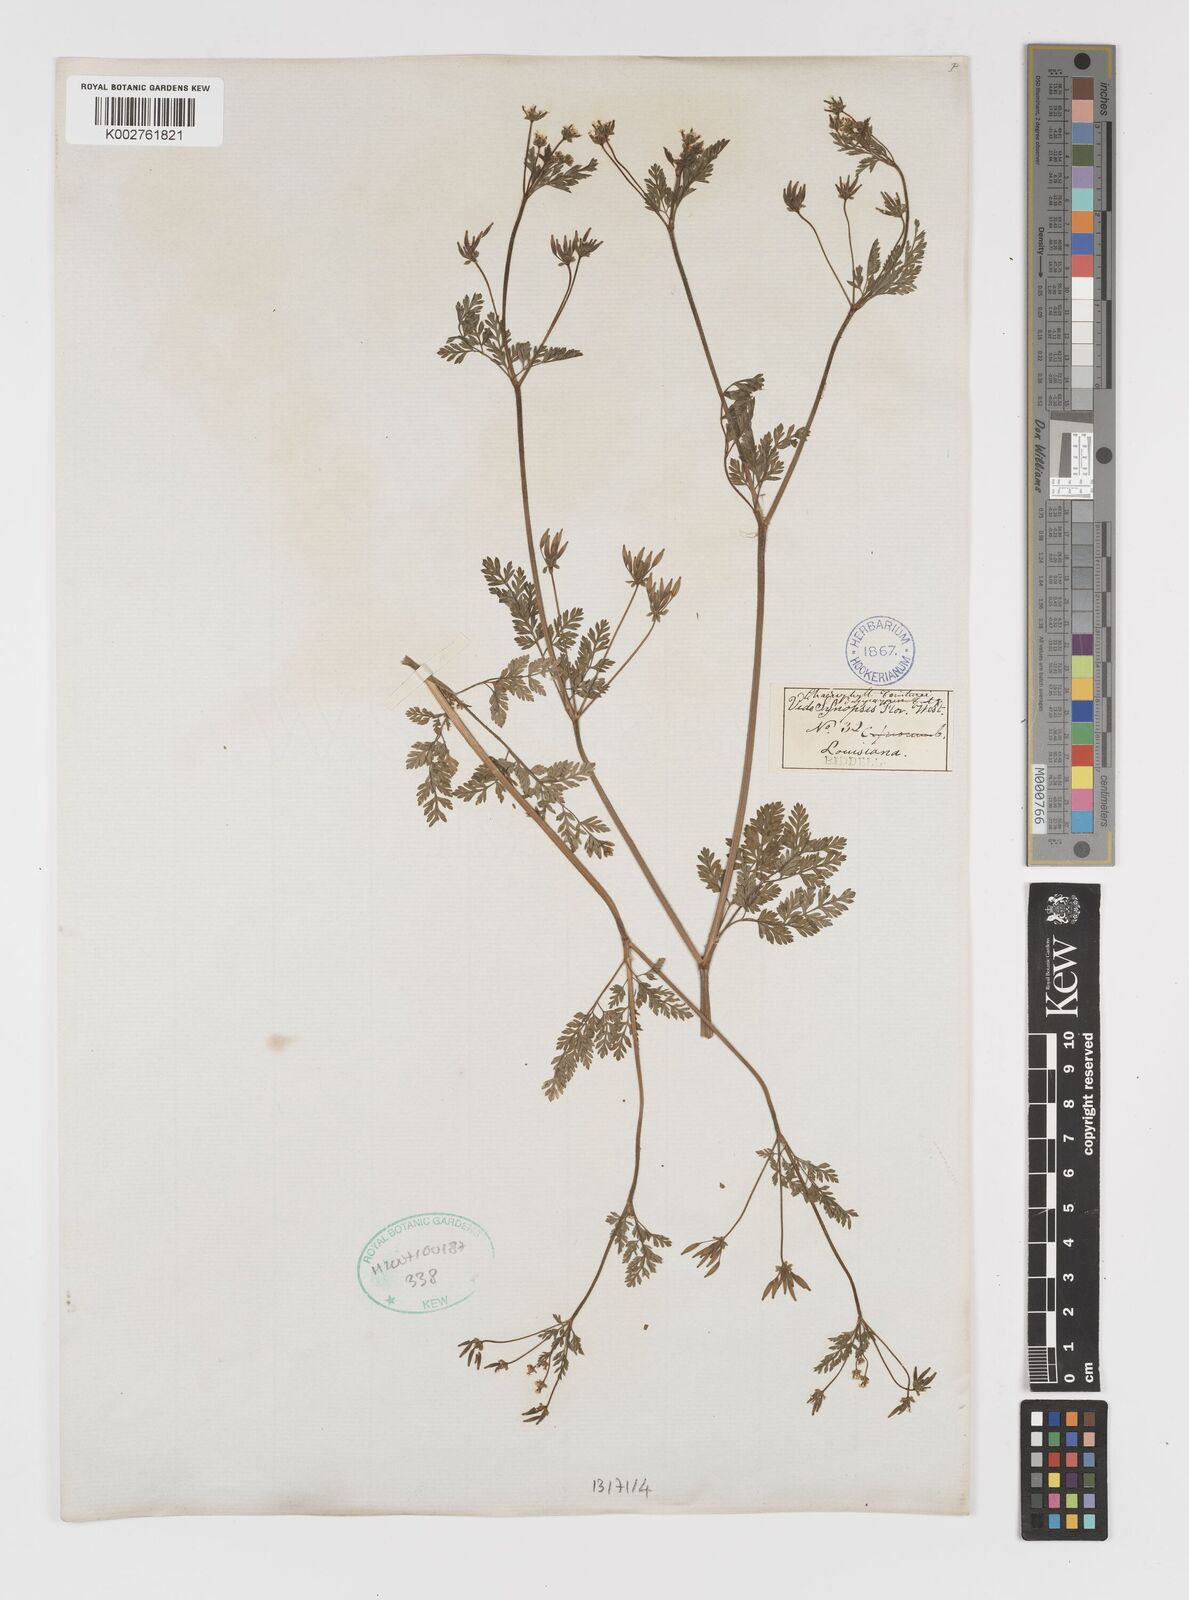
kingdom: Plantae
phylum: Tracheophyta
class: Magnoliopsida
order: Apiales
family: Apiaceae
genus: Chaerophyllum
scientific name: Chaerophyllum tainturieri
